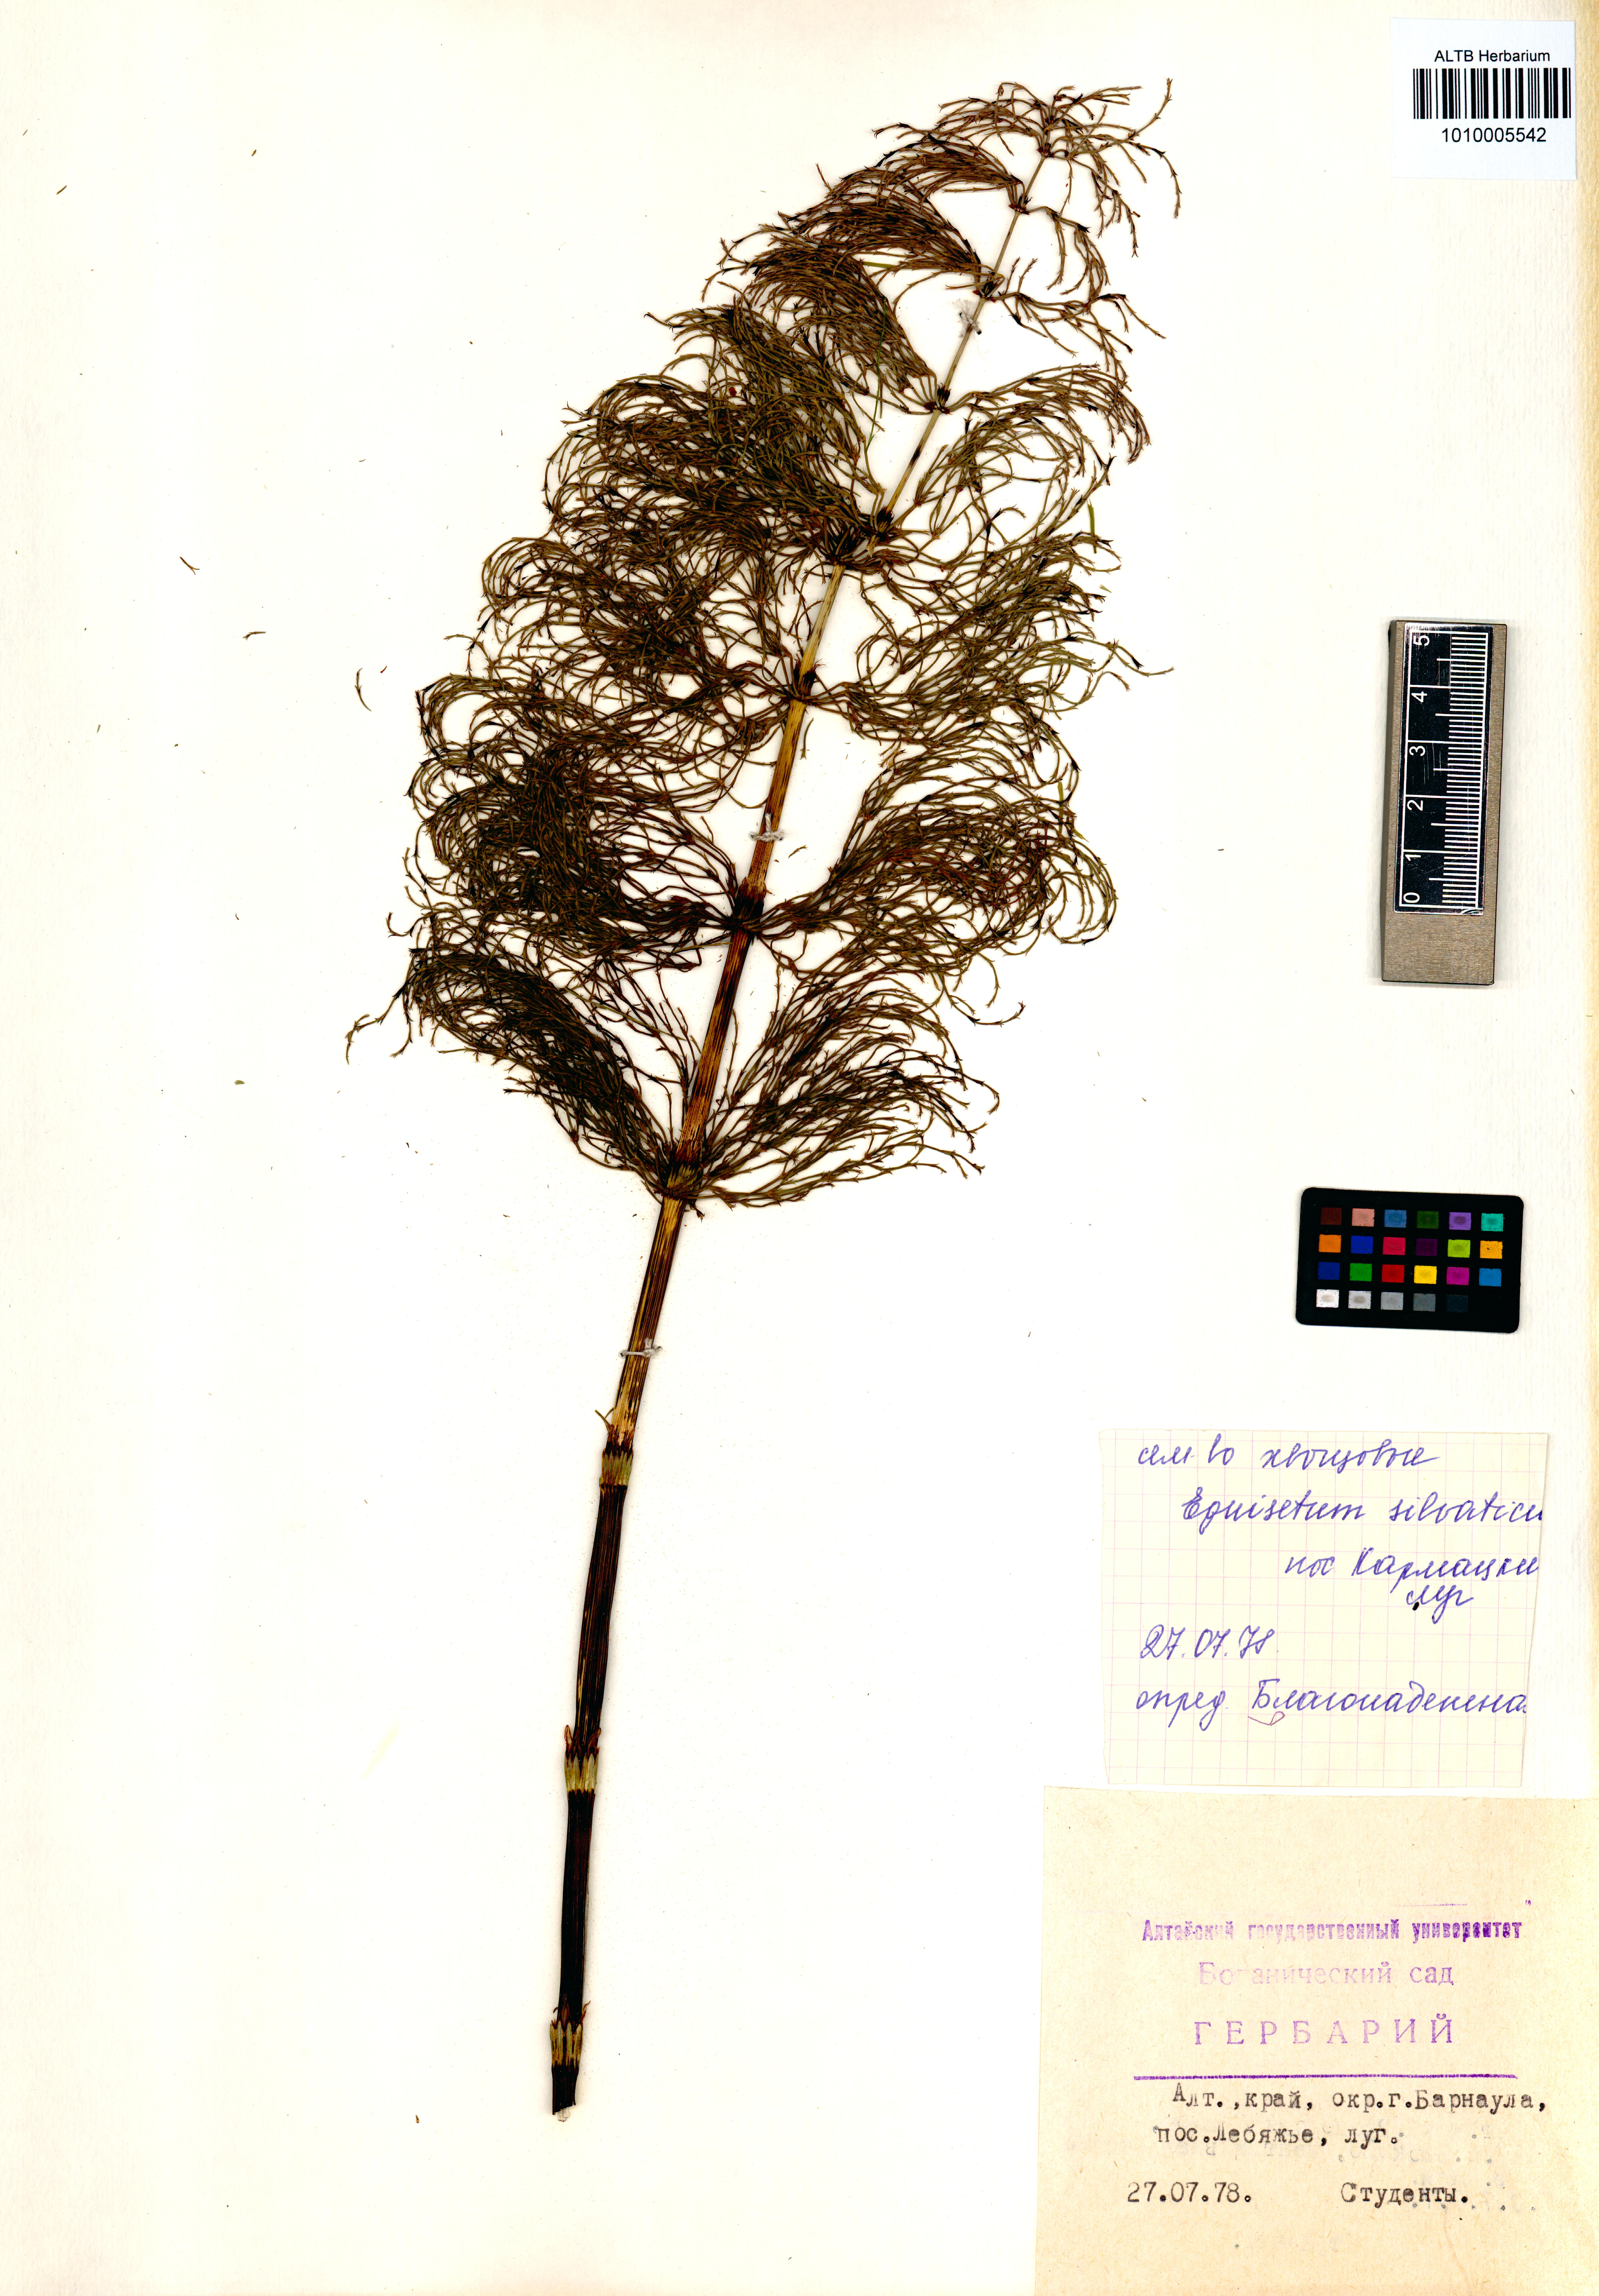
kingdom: Plantae
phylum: Tracheophyta
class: Polypodiopsida
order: Equisetales
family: Equisetaceae
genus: Equisetum
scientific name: Equisetum sylvaticum
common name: Wood horsetail
